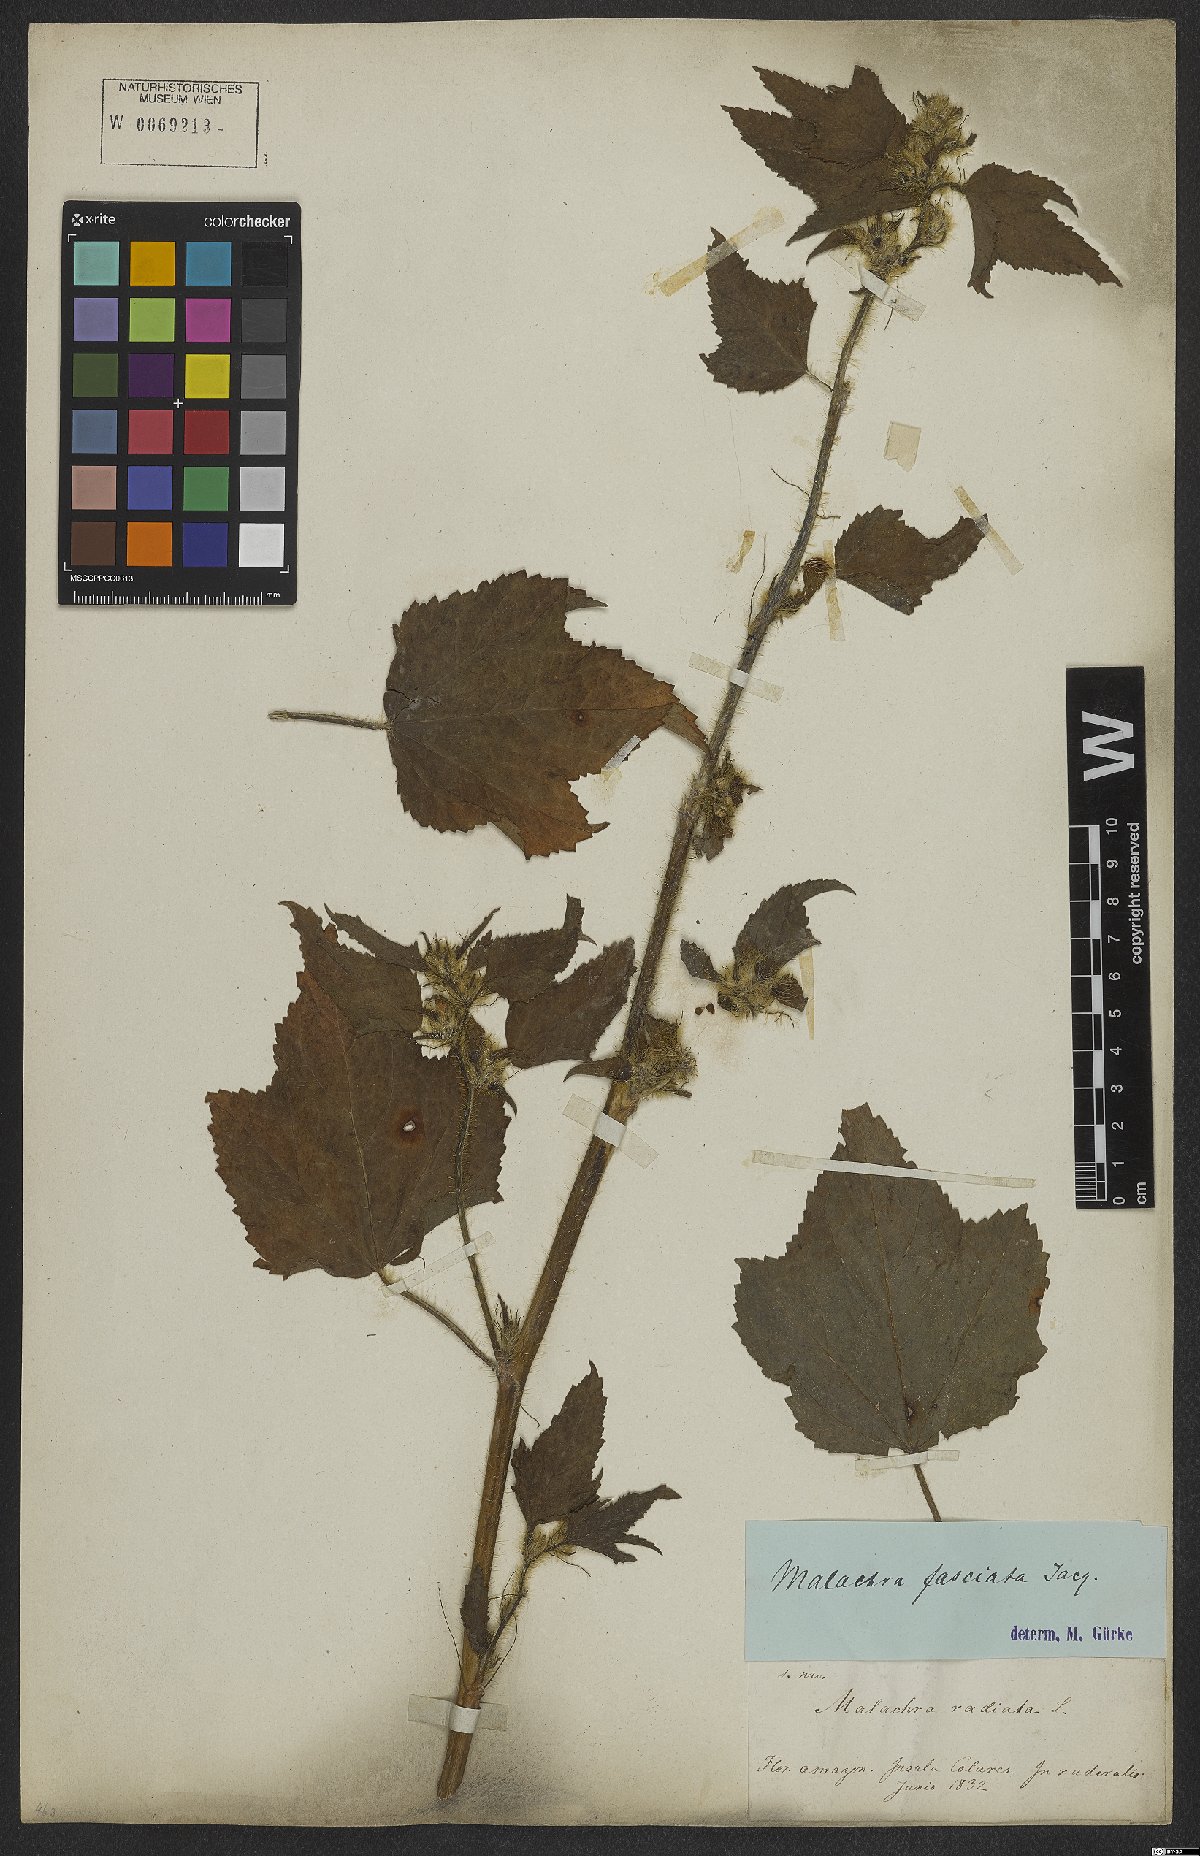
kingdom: Plantae
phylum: Tracheophyta
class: Magnoliopsida
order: Malvales
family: Malvaceae
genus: Malachra
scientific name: Malachra fasciata
